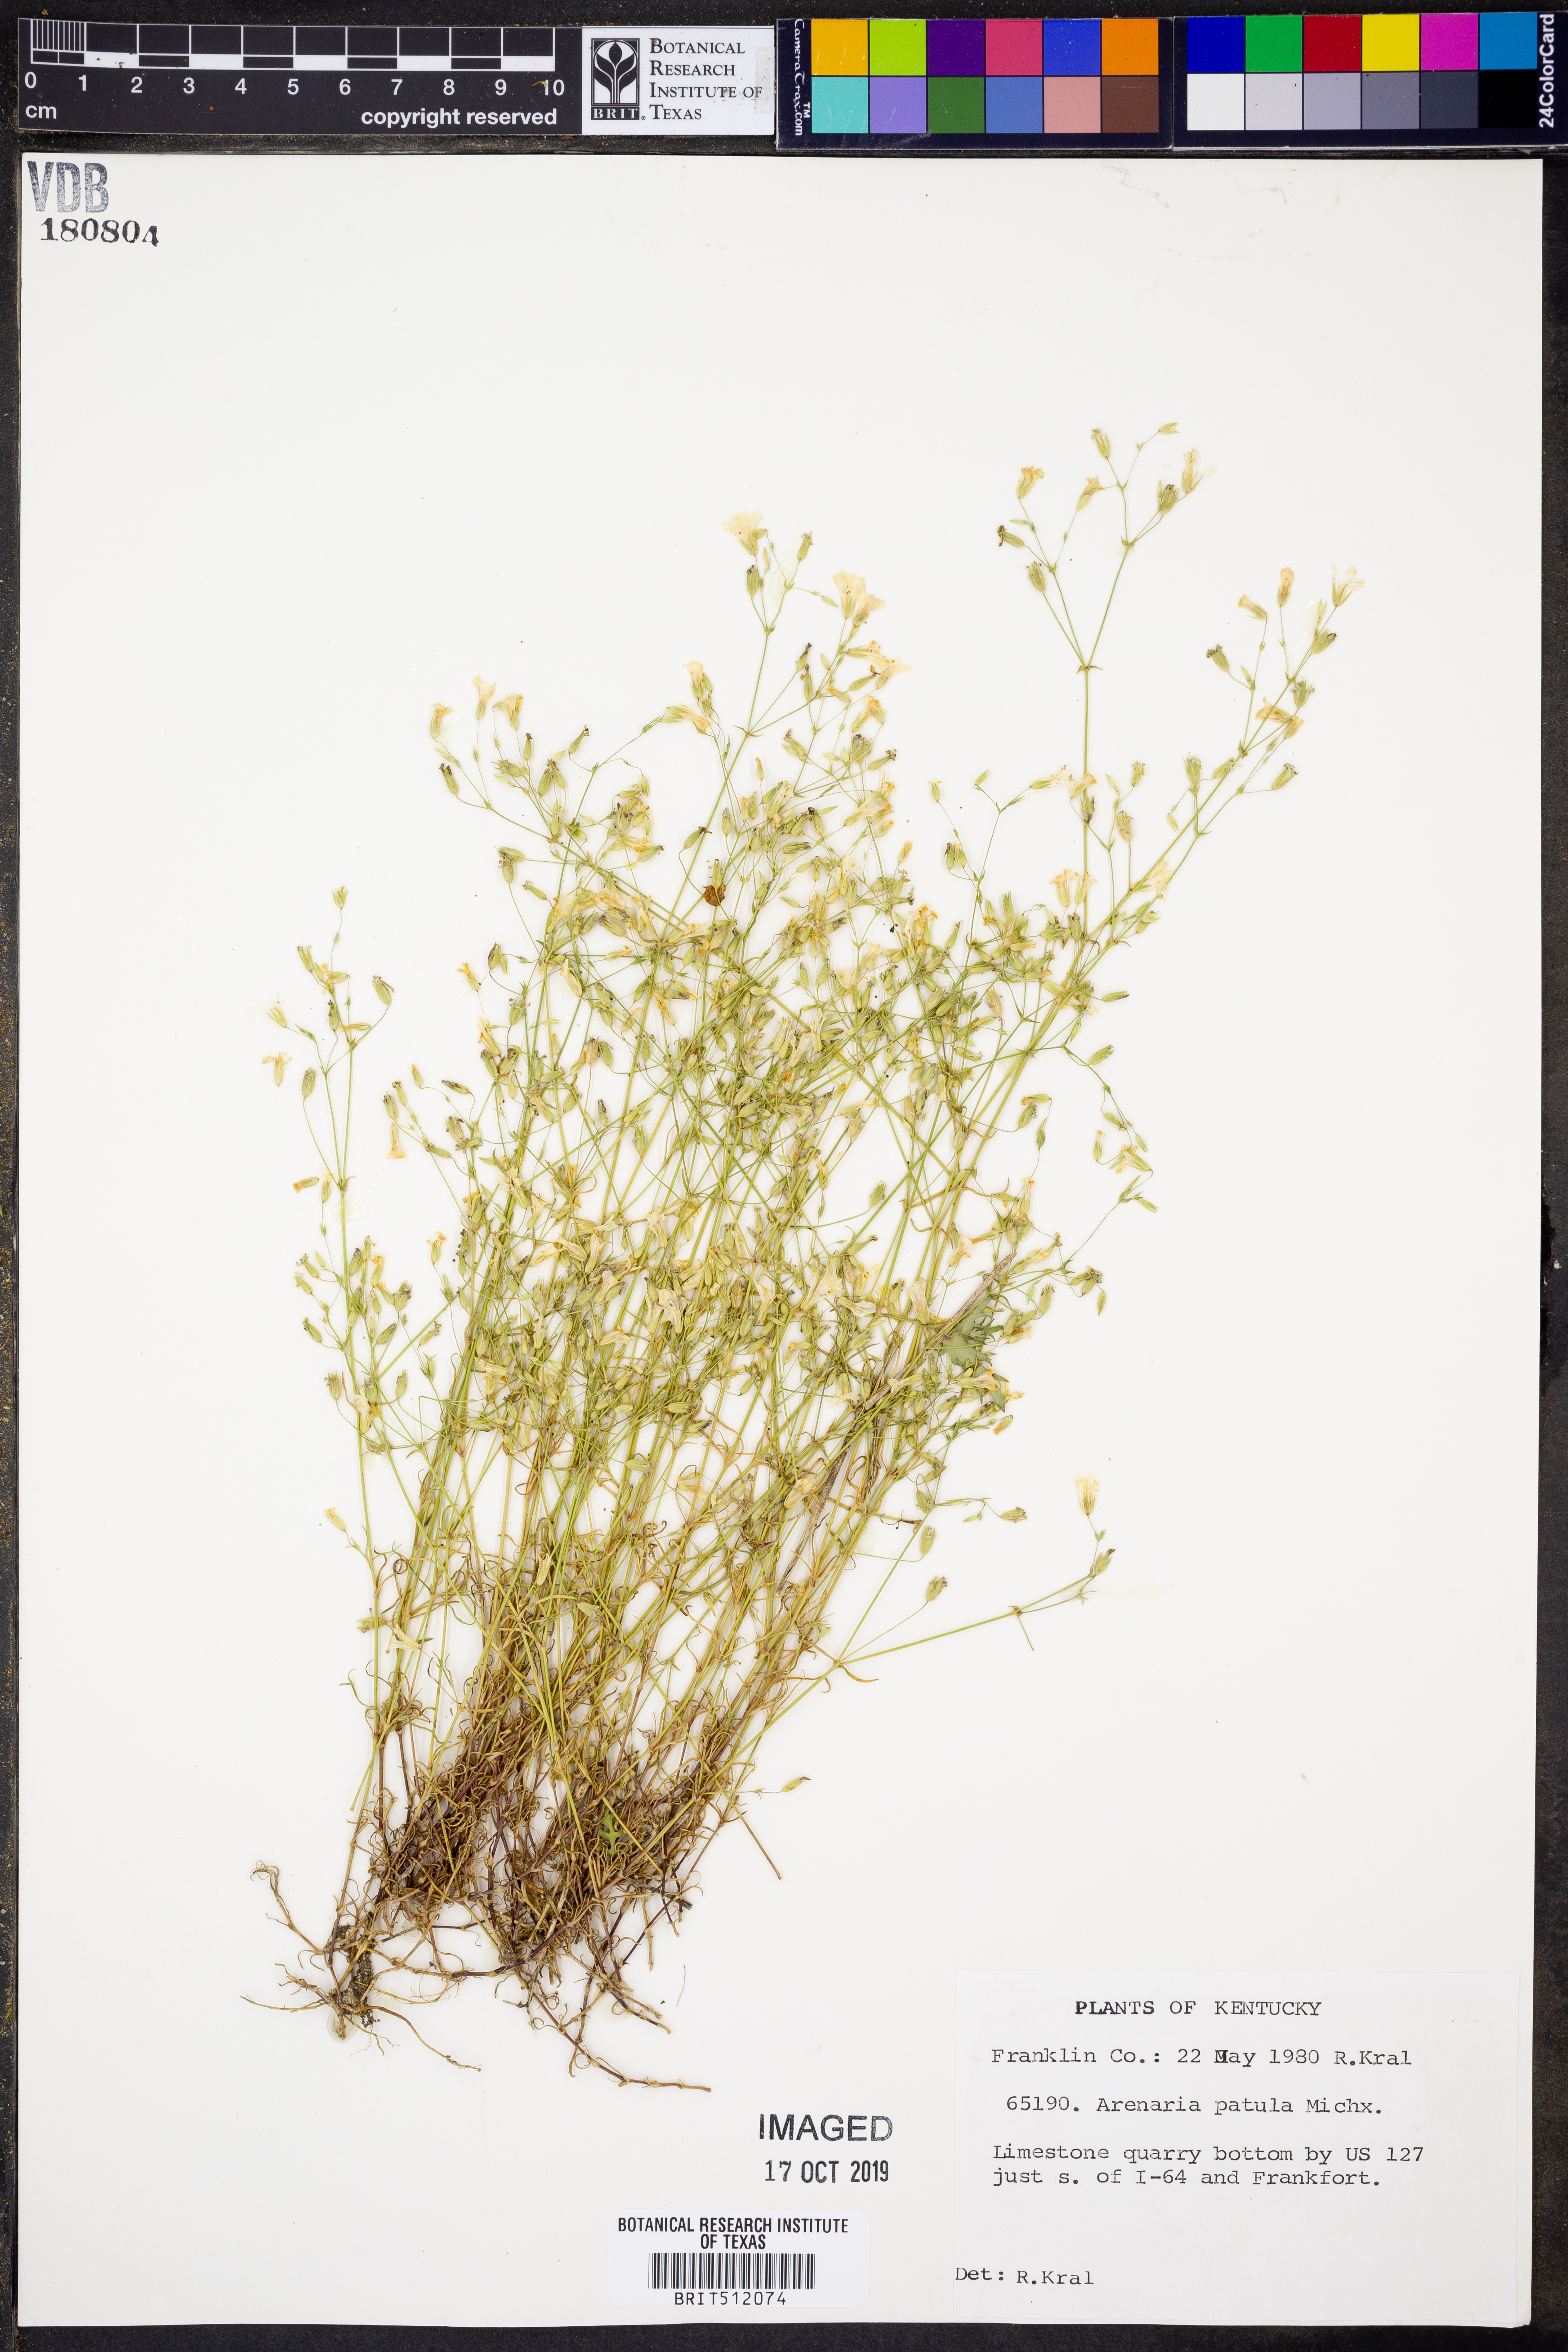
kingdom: Plantae
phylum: Tracheophyta
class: Magnoliopsida
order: Caryophyllales
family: Caryophyllaceae
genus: Mononeuria
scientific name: Mononeuria patula
